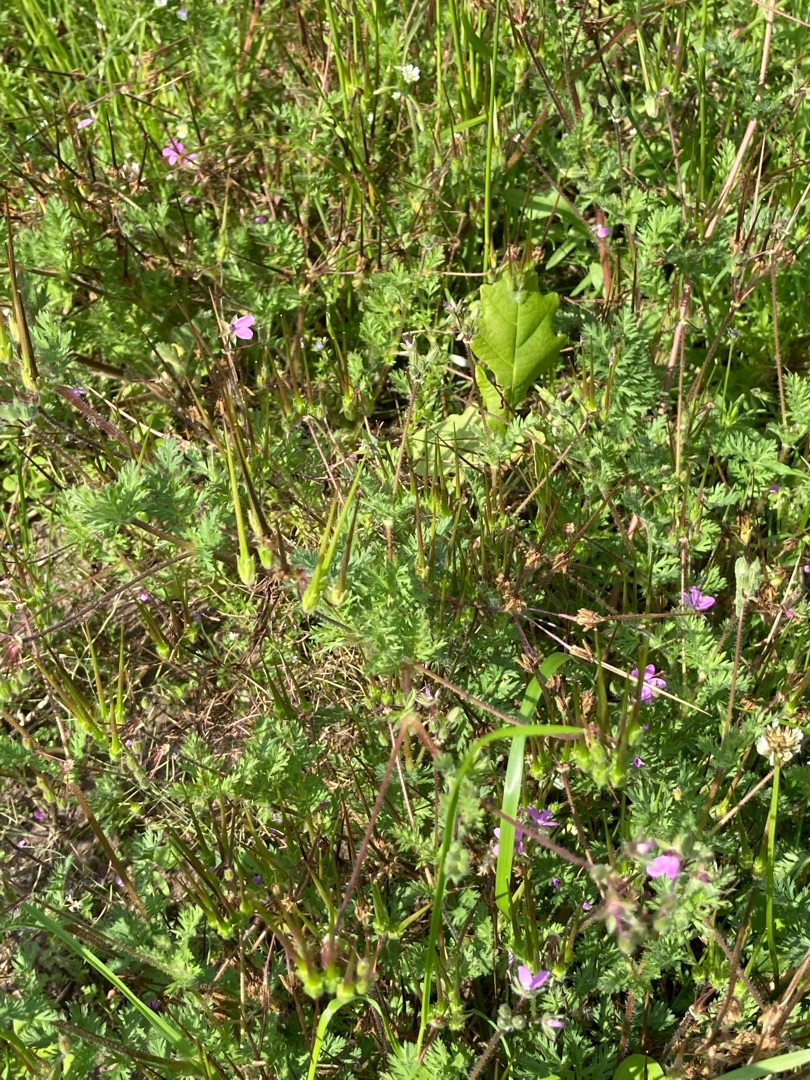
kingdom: Plantae
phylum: Tracheophyta
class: Magnoliopsida
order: Geraniales
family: Geraniaceae
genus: Erodium
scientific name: Erodium cicutarium
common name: Hejrenæb
